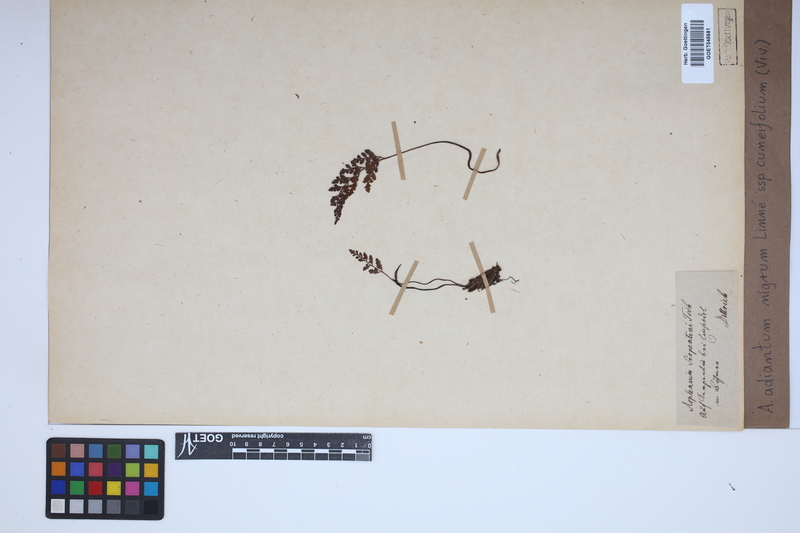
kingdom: Plantae
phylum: Tracheophyta
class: Polypodiopsida
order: Polypodiales
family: Aspleniaceae
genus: Asplenium
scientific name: Asplenium cuneifolium
